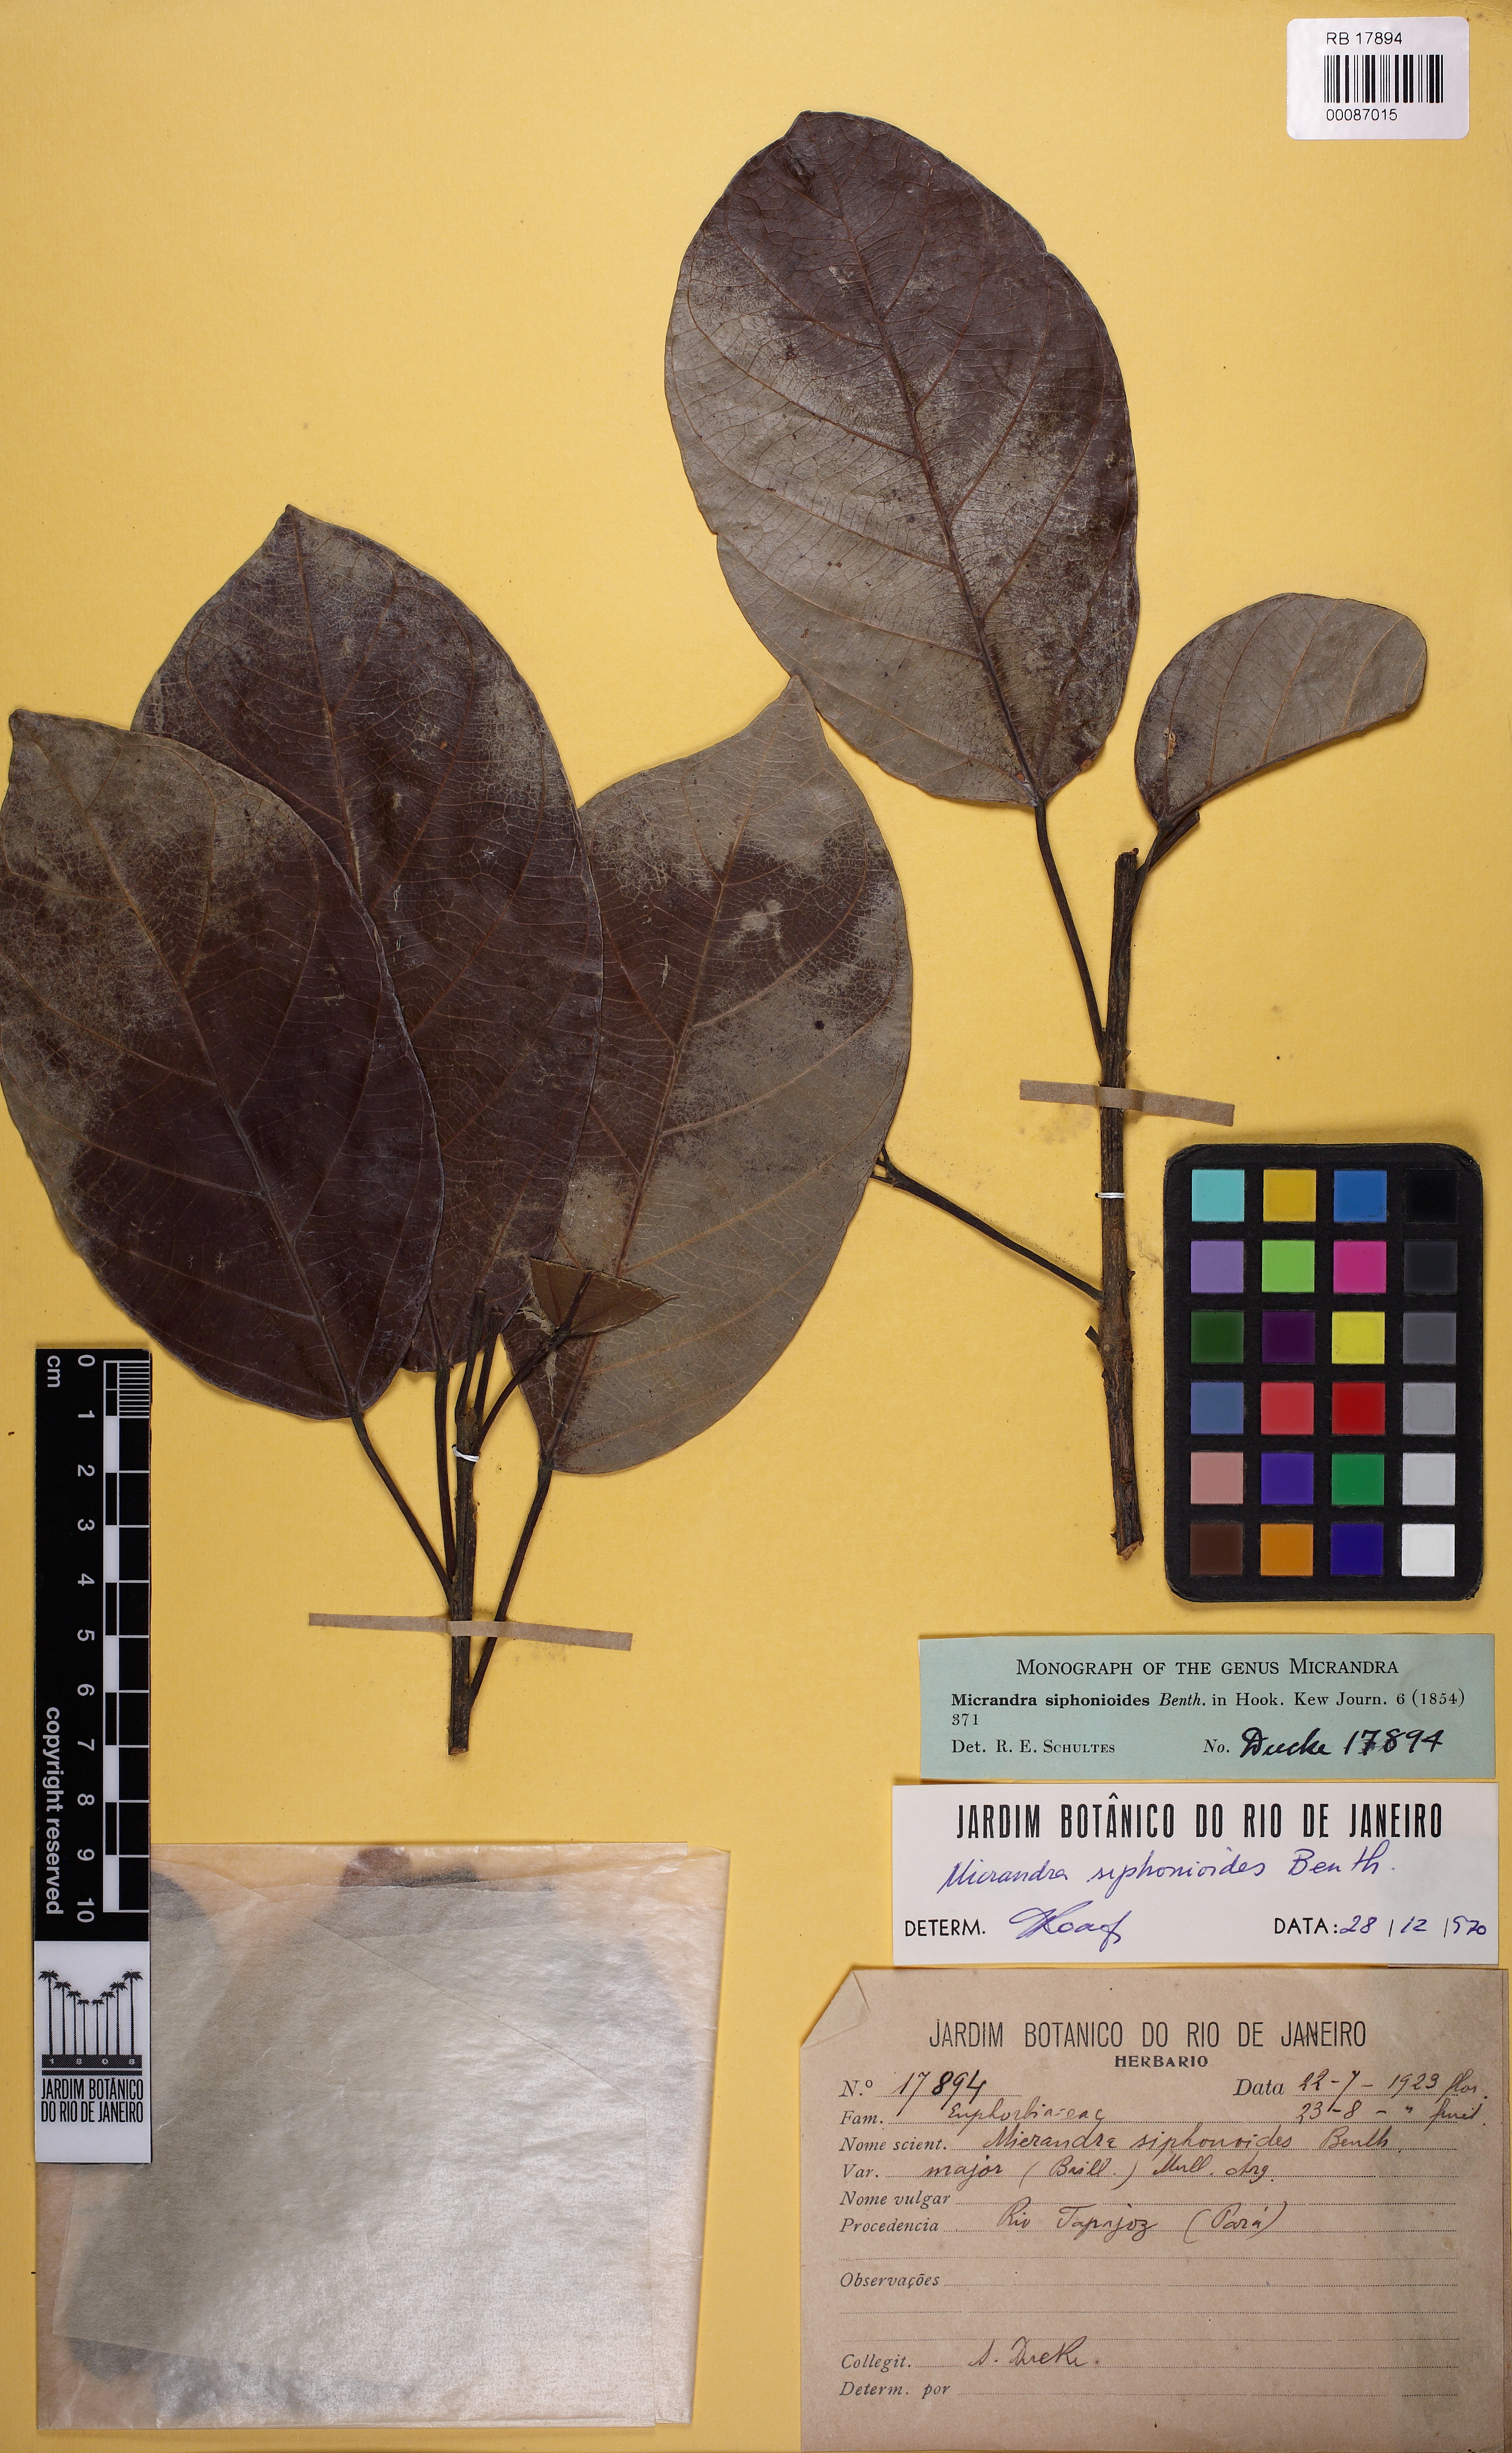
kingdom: Plantae
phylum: Tracheophyta
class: Magnoliopsida
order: Malpighiales
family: Euphorbiaceae
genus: Micrandra
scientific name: Micrandra
